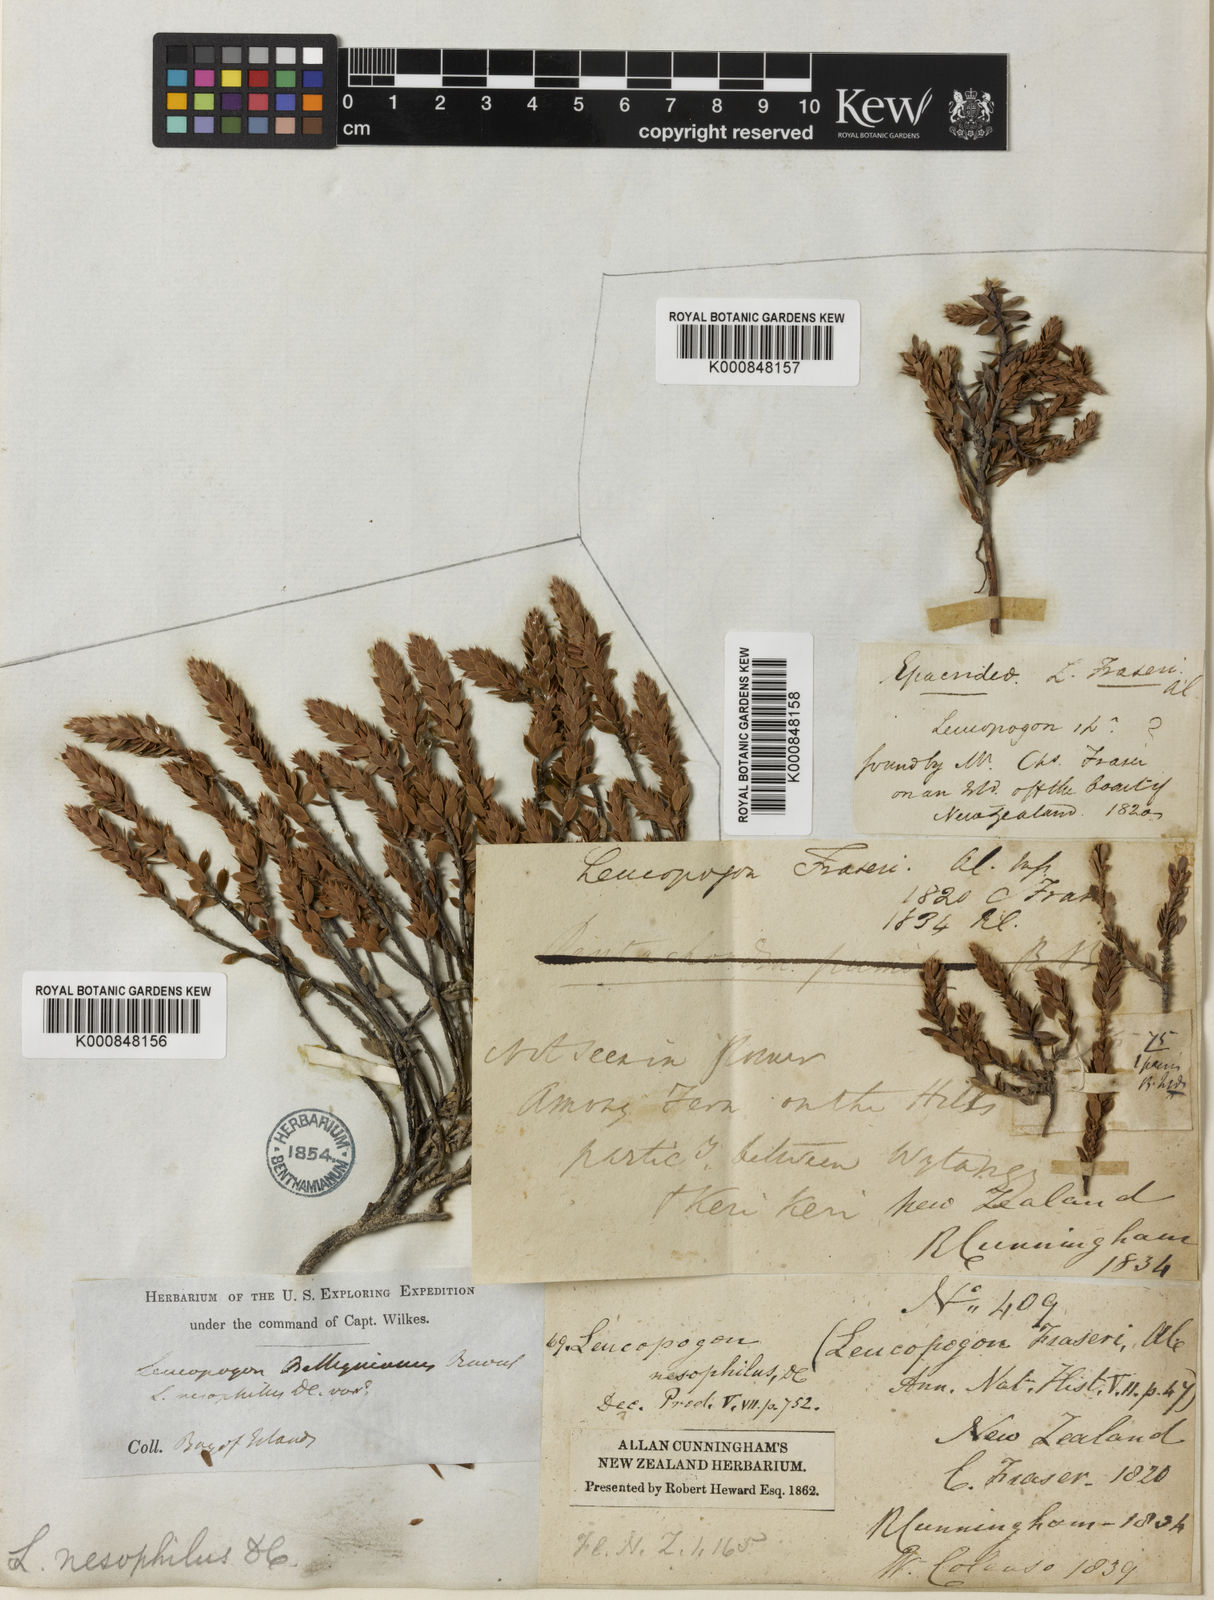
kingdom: Plantae
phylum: Tracheophyta
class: Magnoliopsida
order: Ericales
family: Ericaceae
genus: Styphelia
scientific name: Styphelia nesophila
